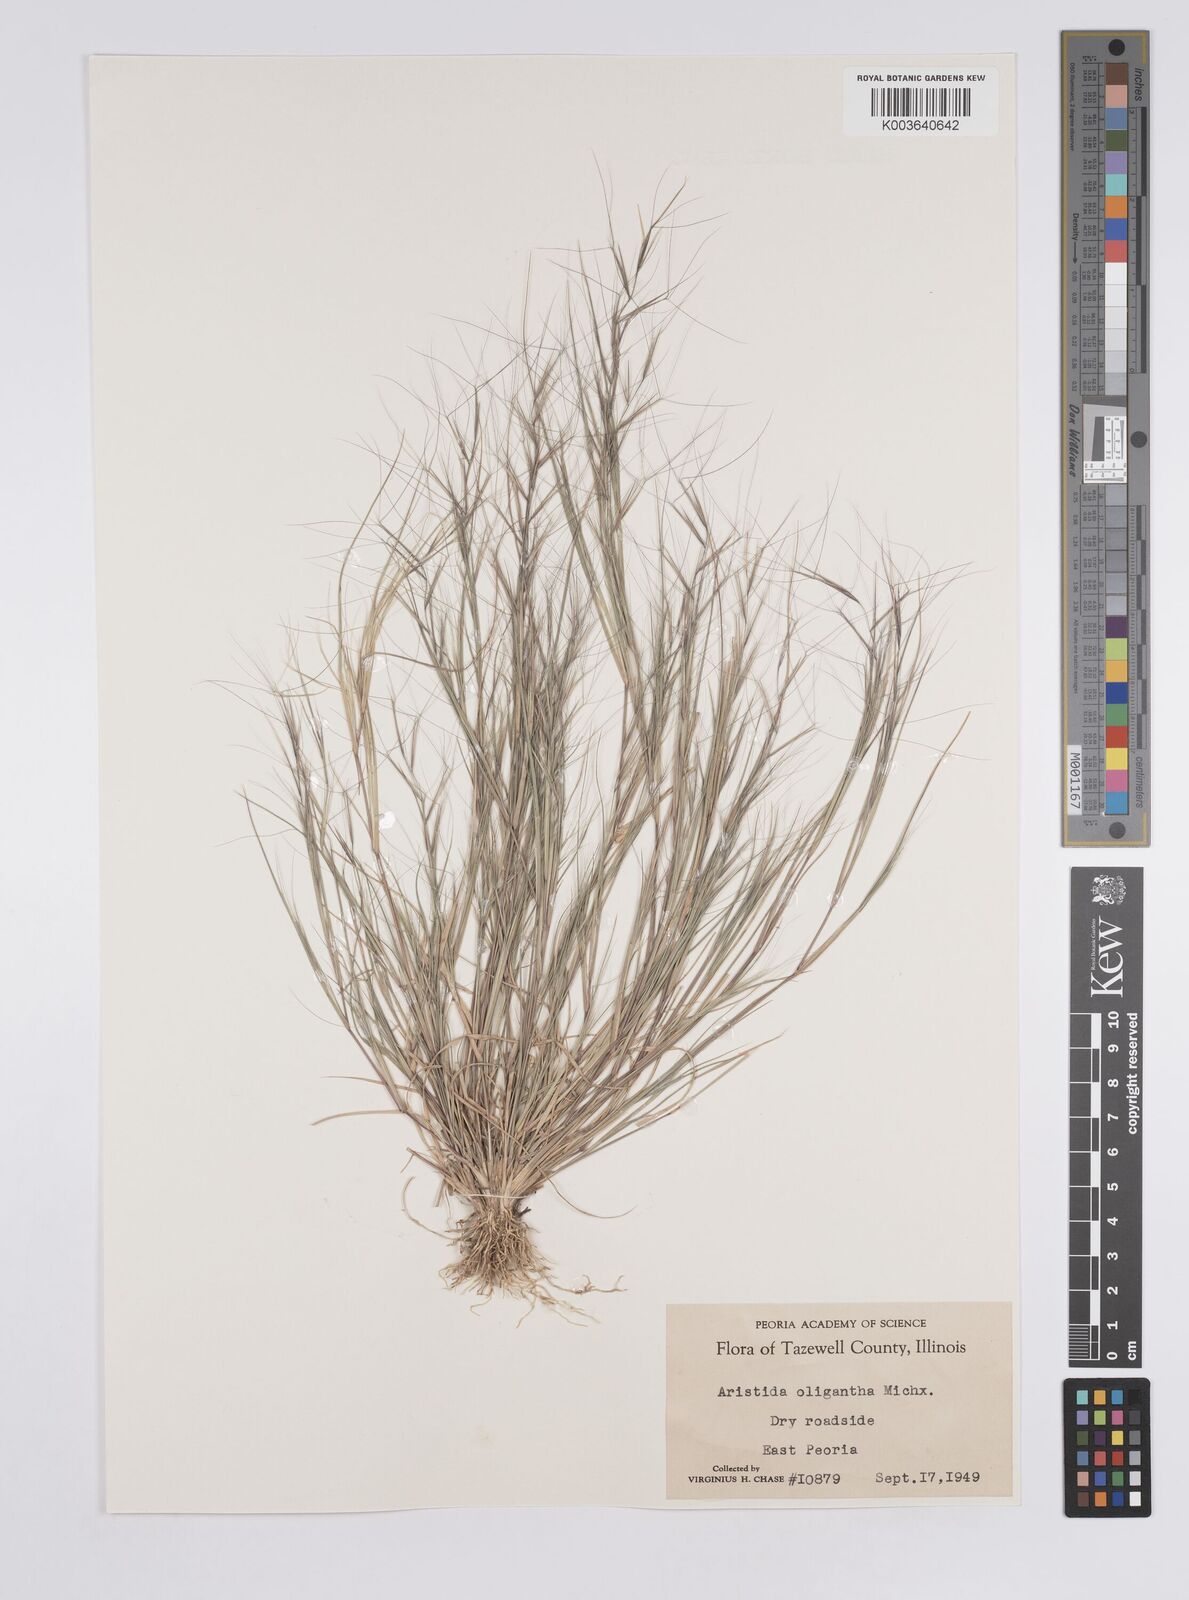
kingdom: Plantae
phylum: Tracheophyta
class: Liliopsida
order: Poales
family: Poaceae
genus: Aristida
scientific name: Aristida oligantha
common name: Few-flowered aristida
